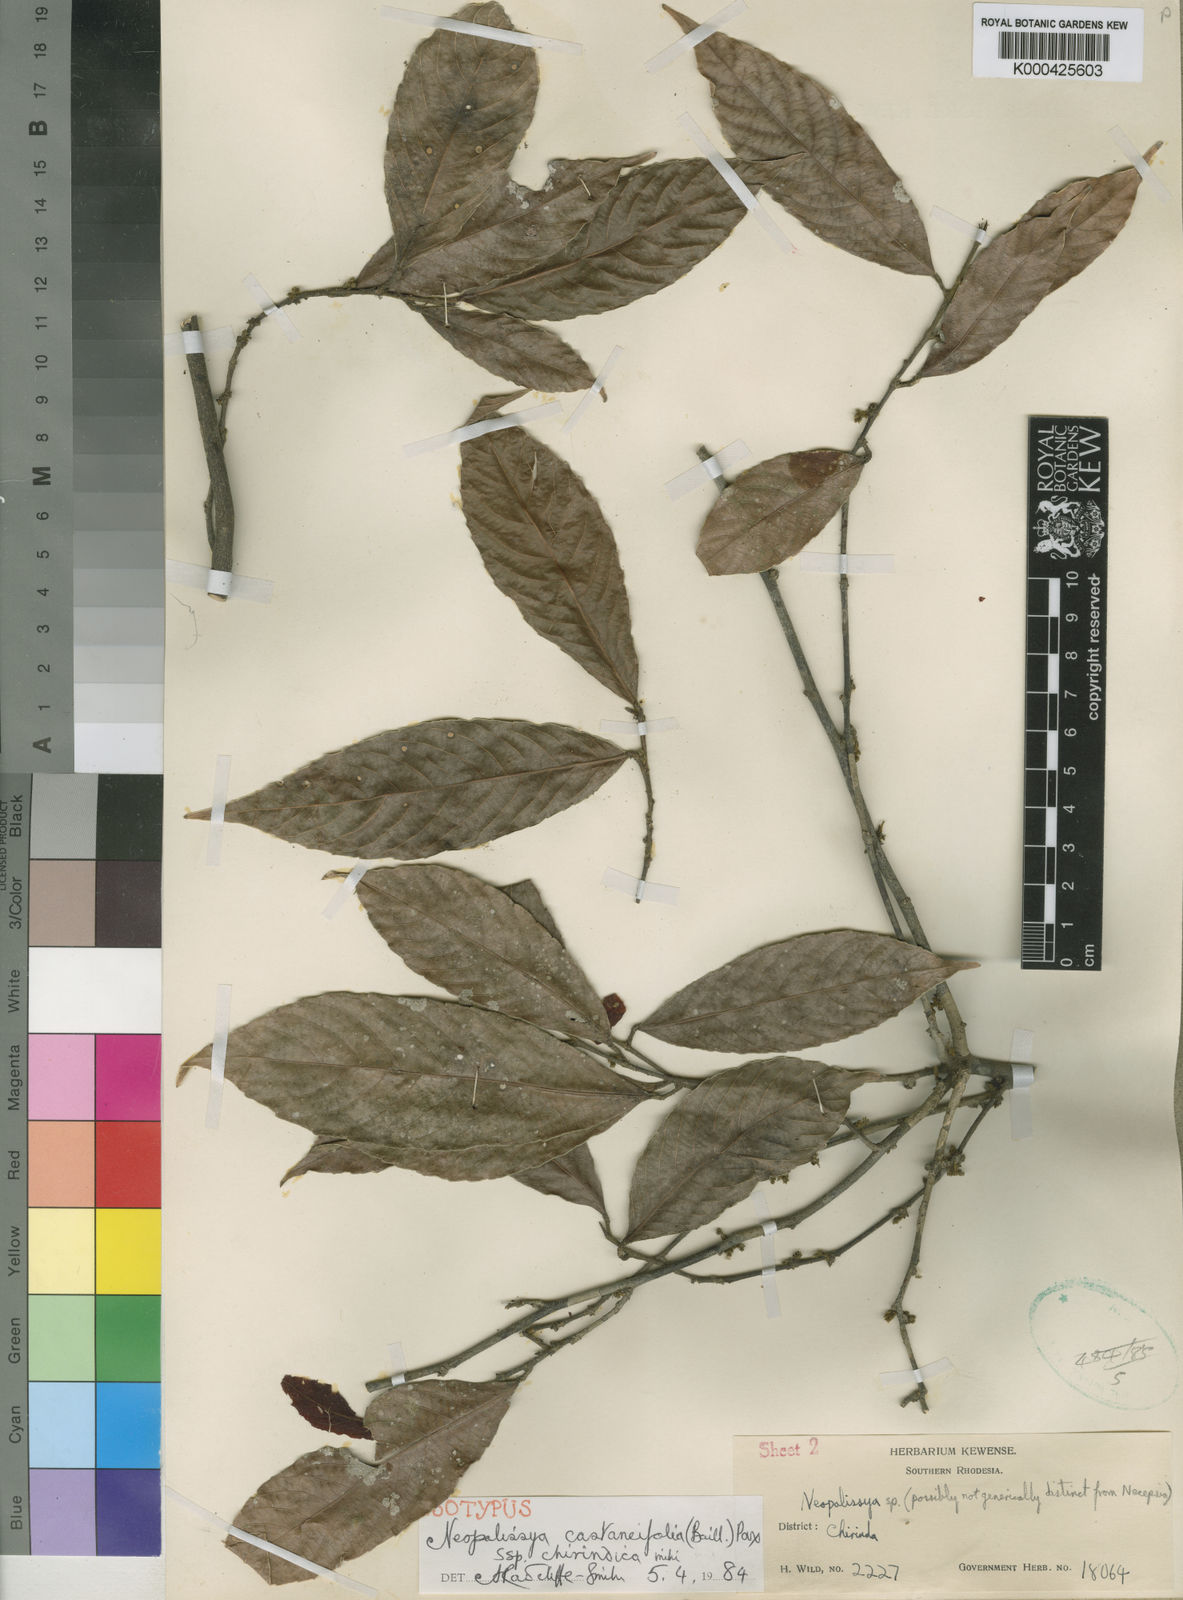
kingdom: Plantae
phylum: Tracheophyta
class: Magnoliopsida
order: Malpighiales
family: Euphorbiaceae
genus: Necepsia
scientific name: Necepsia
